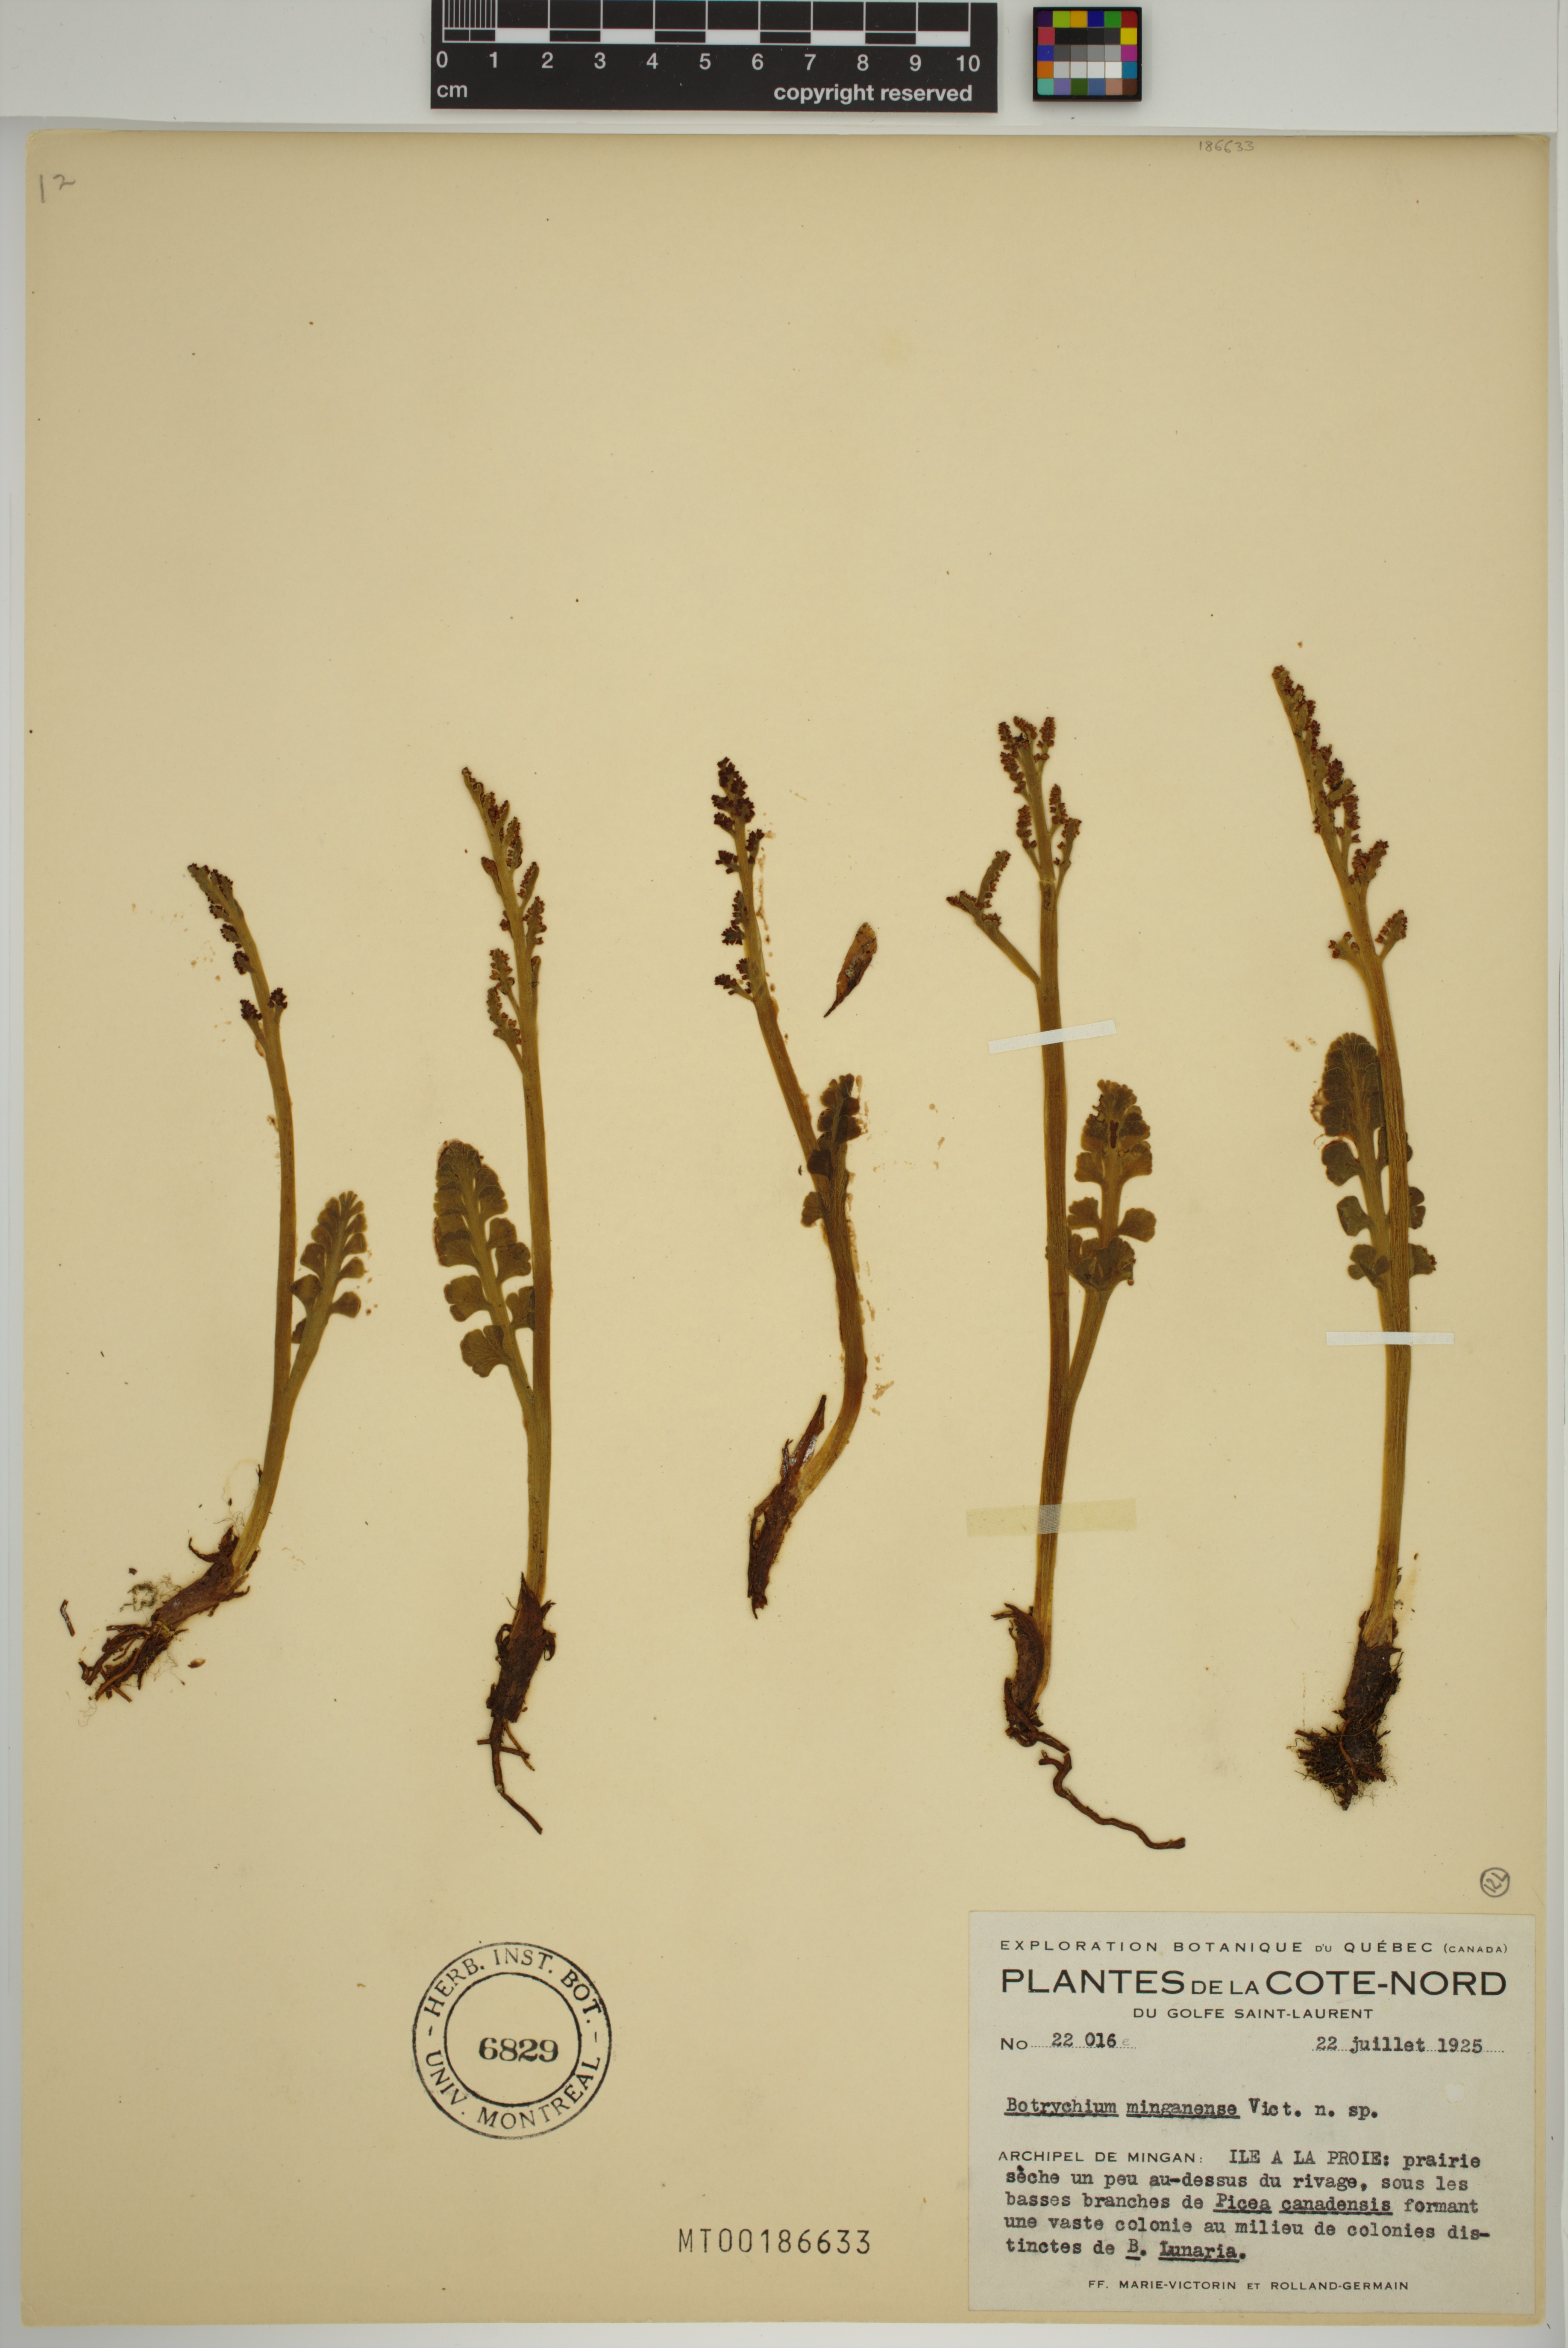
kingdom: Plantae
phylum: Tracheophyta
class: Polypodiopsida
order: Ophioglossales
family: Ophioglossaceae
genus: Botrychium
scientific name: Botrychium minganense
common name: Mingan grapefern
